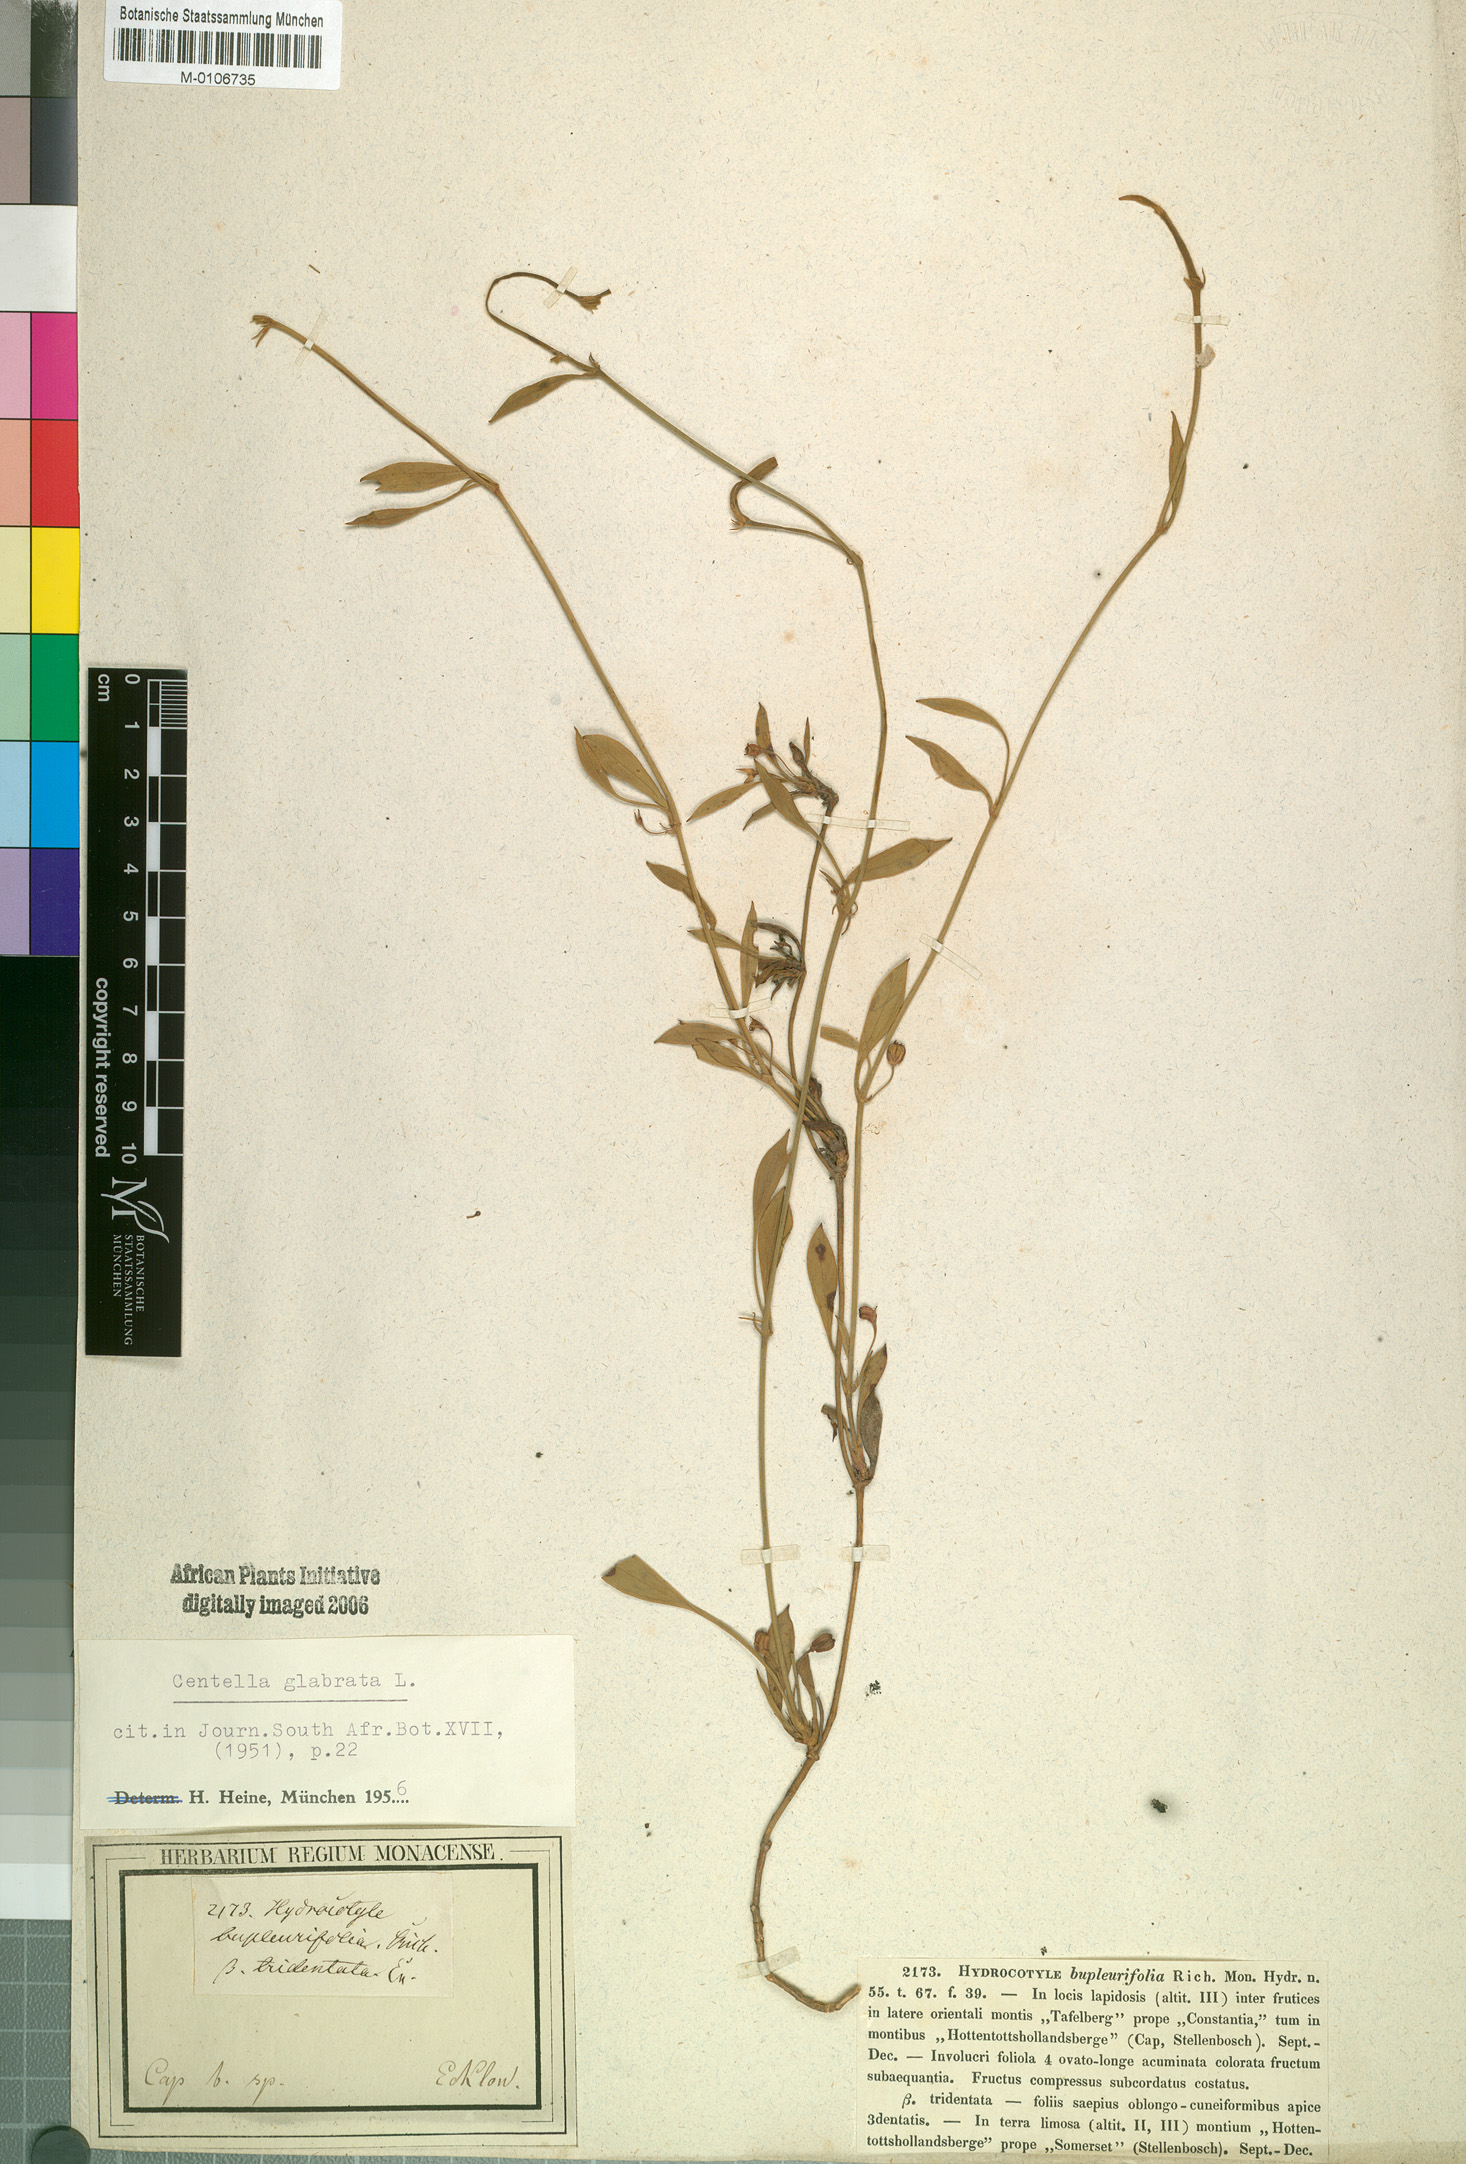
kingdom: Plantae
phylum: Tracheophyta
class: Magnoliopsida
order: Apiales
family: Apiaceae
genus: Centella
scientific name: Centella glabrata
